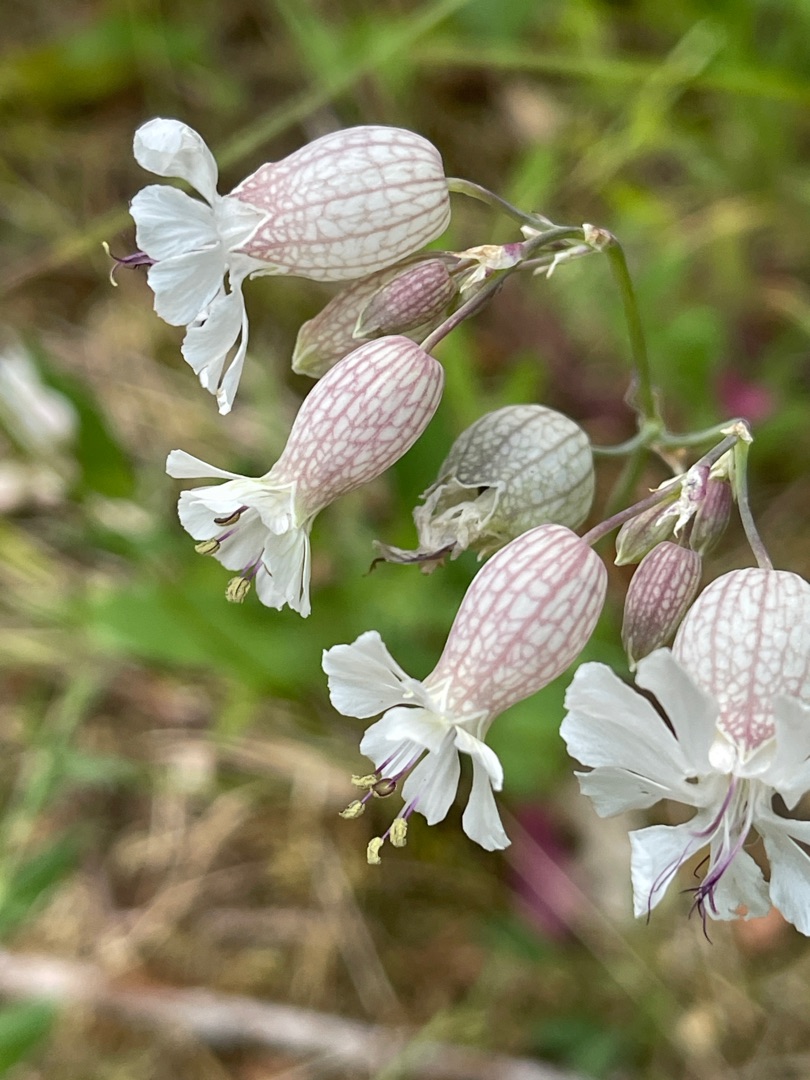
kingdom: Plantae
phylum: Tracheophyta
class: Magnoliopsida
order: Caryophyllales
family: Caryophyllaceae
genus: Silene
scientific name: Silene vulgaris
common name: Blæresmælde
